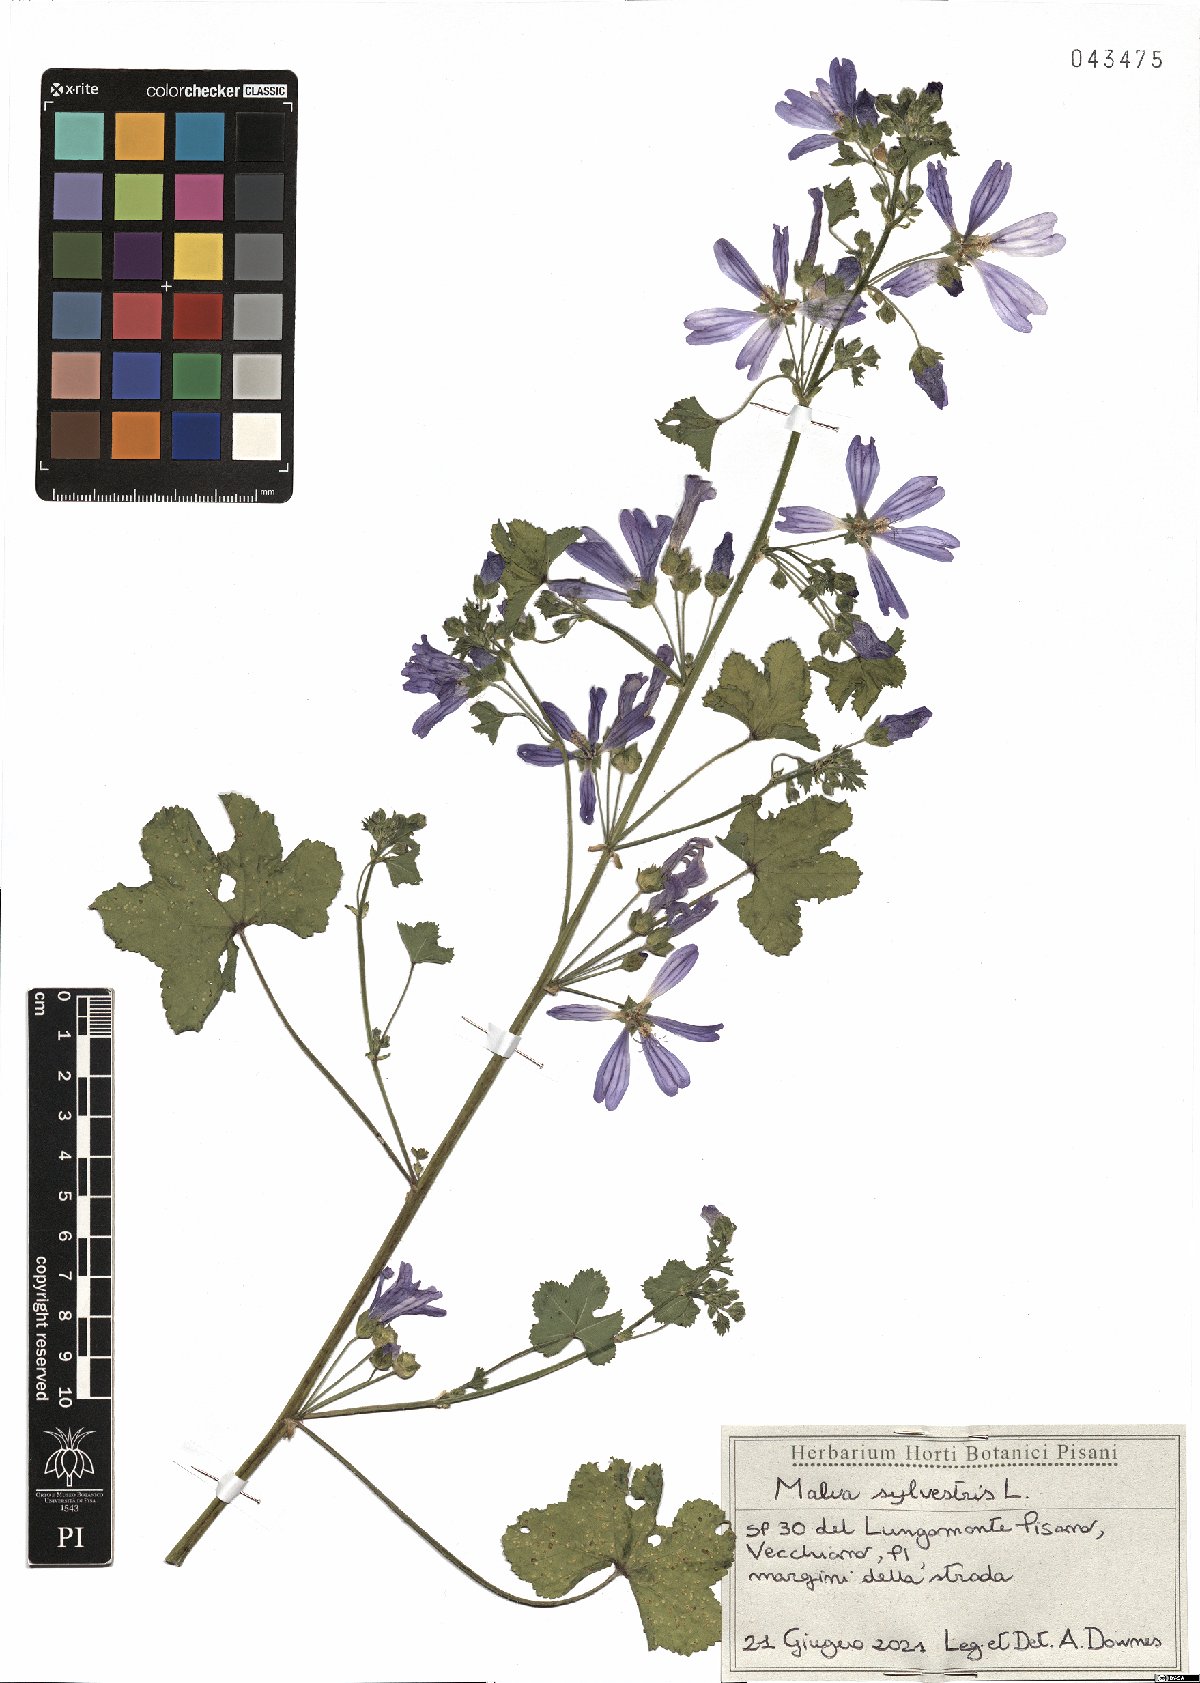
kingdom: Plantae
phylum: Tracheophyta
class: Magnoliopsida
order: Malvales
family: Malvaceae
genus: Malva
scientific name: Malva sylvestris
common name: Common mallow
